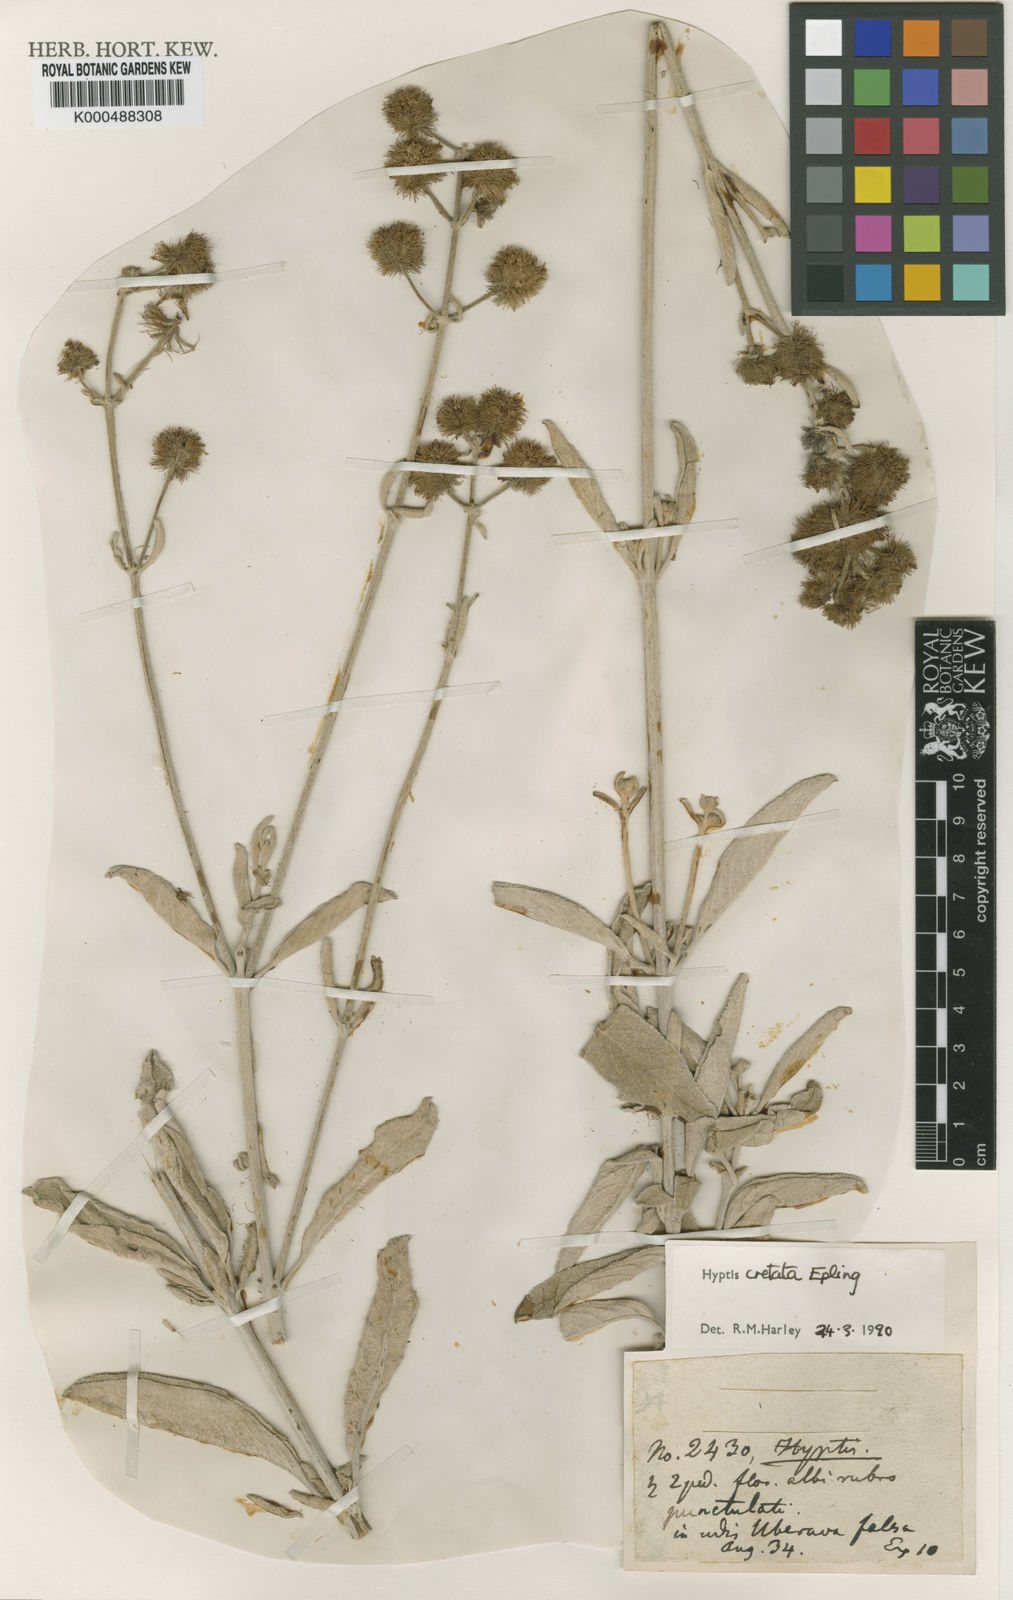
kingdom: Plantae
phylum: Tracheophyta
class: Magnoliopsida
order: Lamiales
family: Lamiaceae
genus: Cyanocephalus
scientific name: Cyanocephalus cretatus
